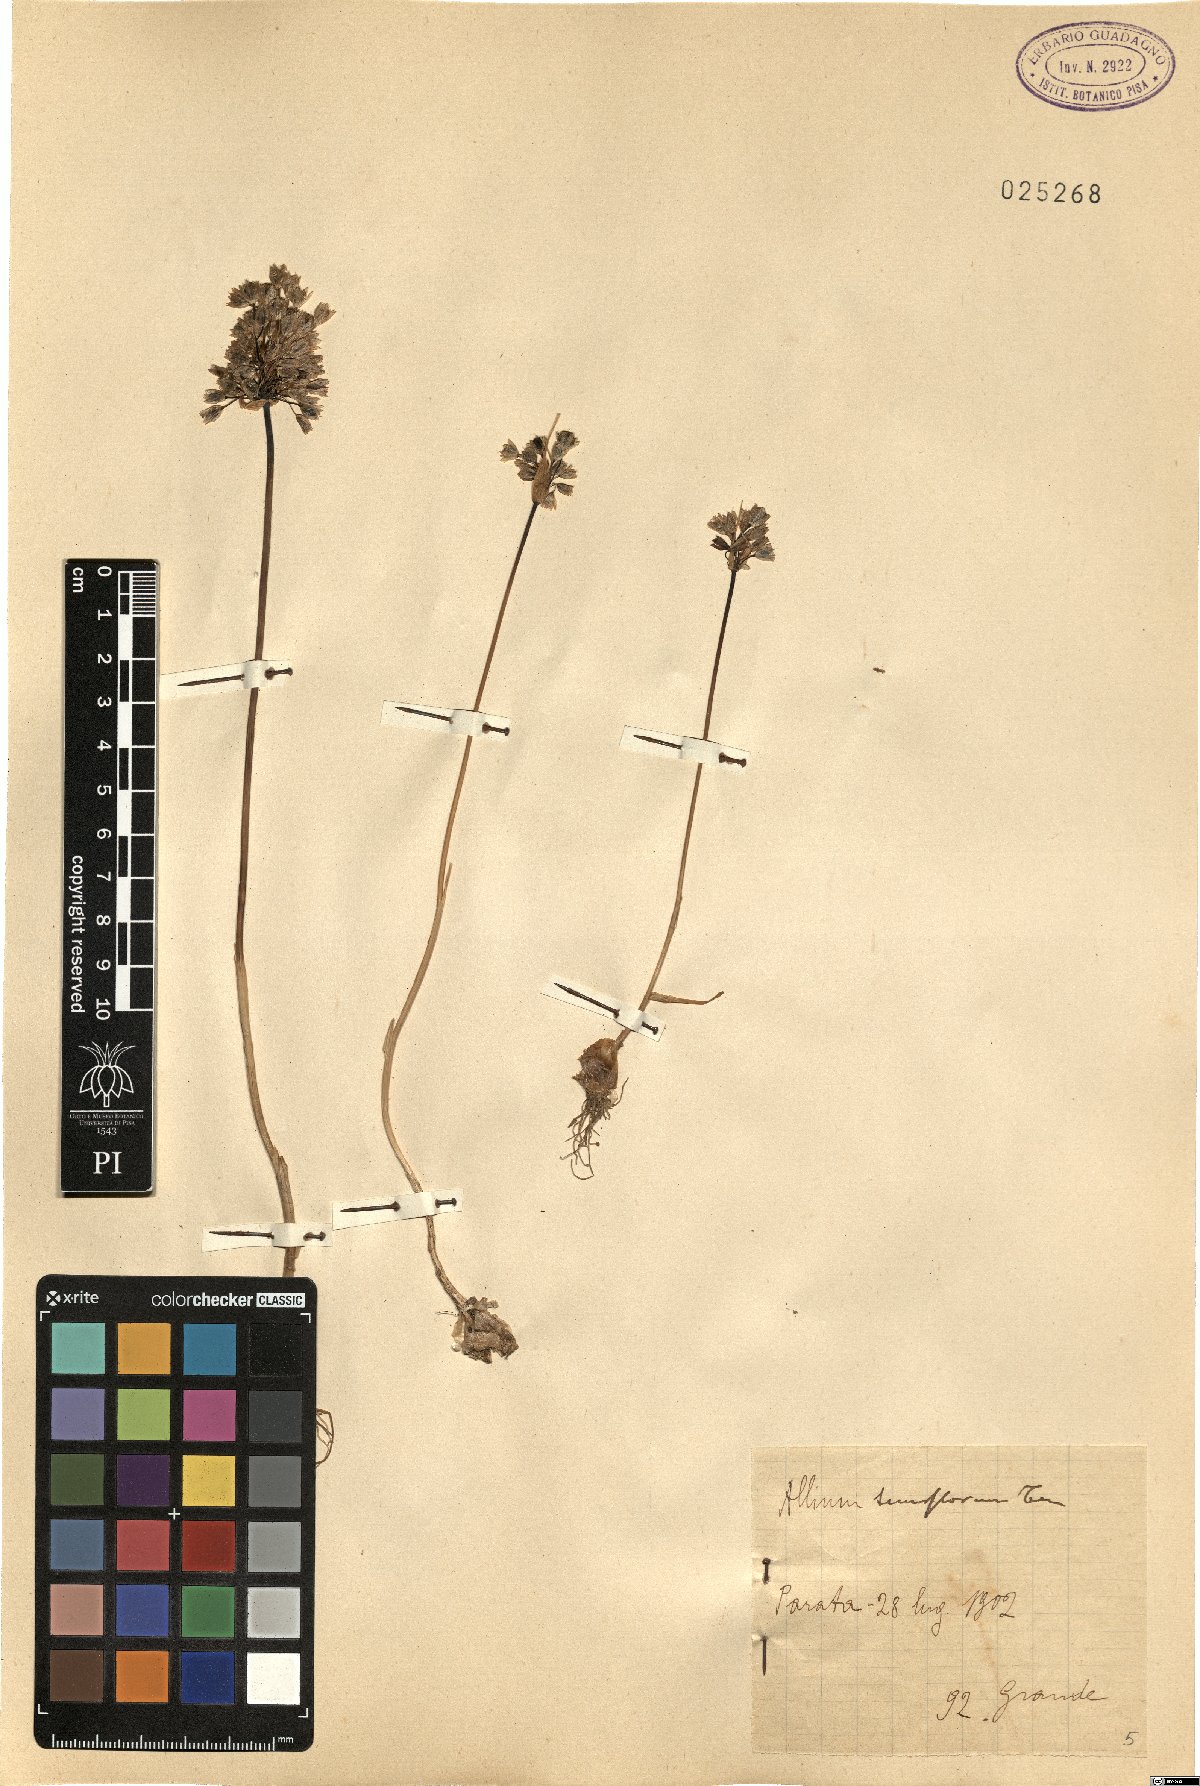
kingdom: Plantae
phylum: Tracheophyta
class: Liliopsida
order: Asparagales
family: Amaryllidaceae
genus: Allium
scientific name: Allium tenuiflorum
